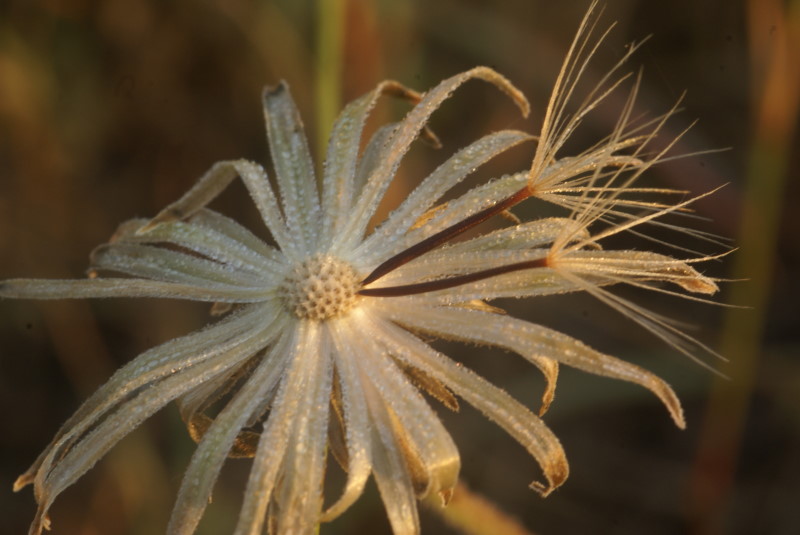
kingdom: Plantae
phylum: Tracheophyta
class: Magnoliopsida
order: Asterales
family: Asteraceae
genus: Scorzonera
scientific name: Scorzonera
